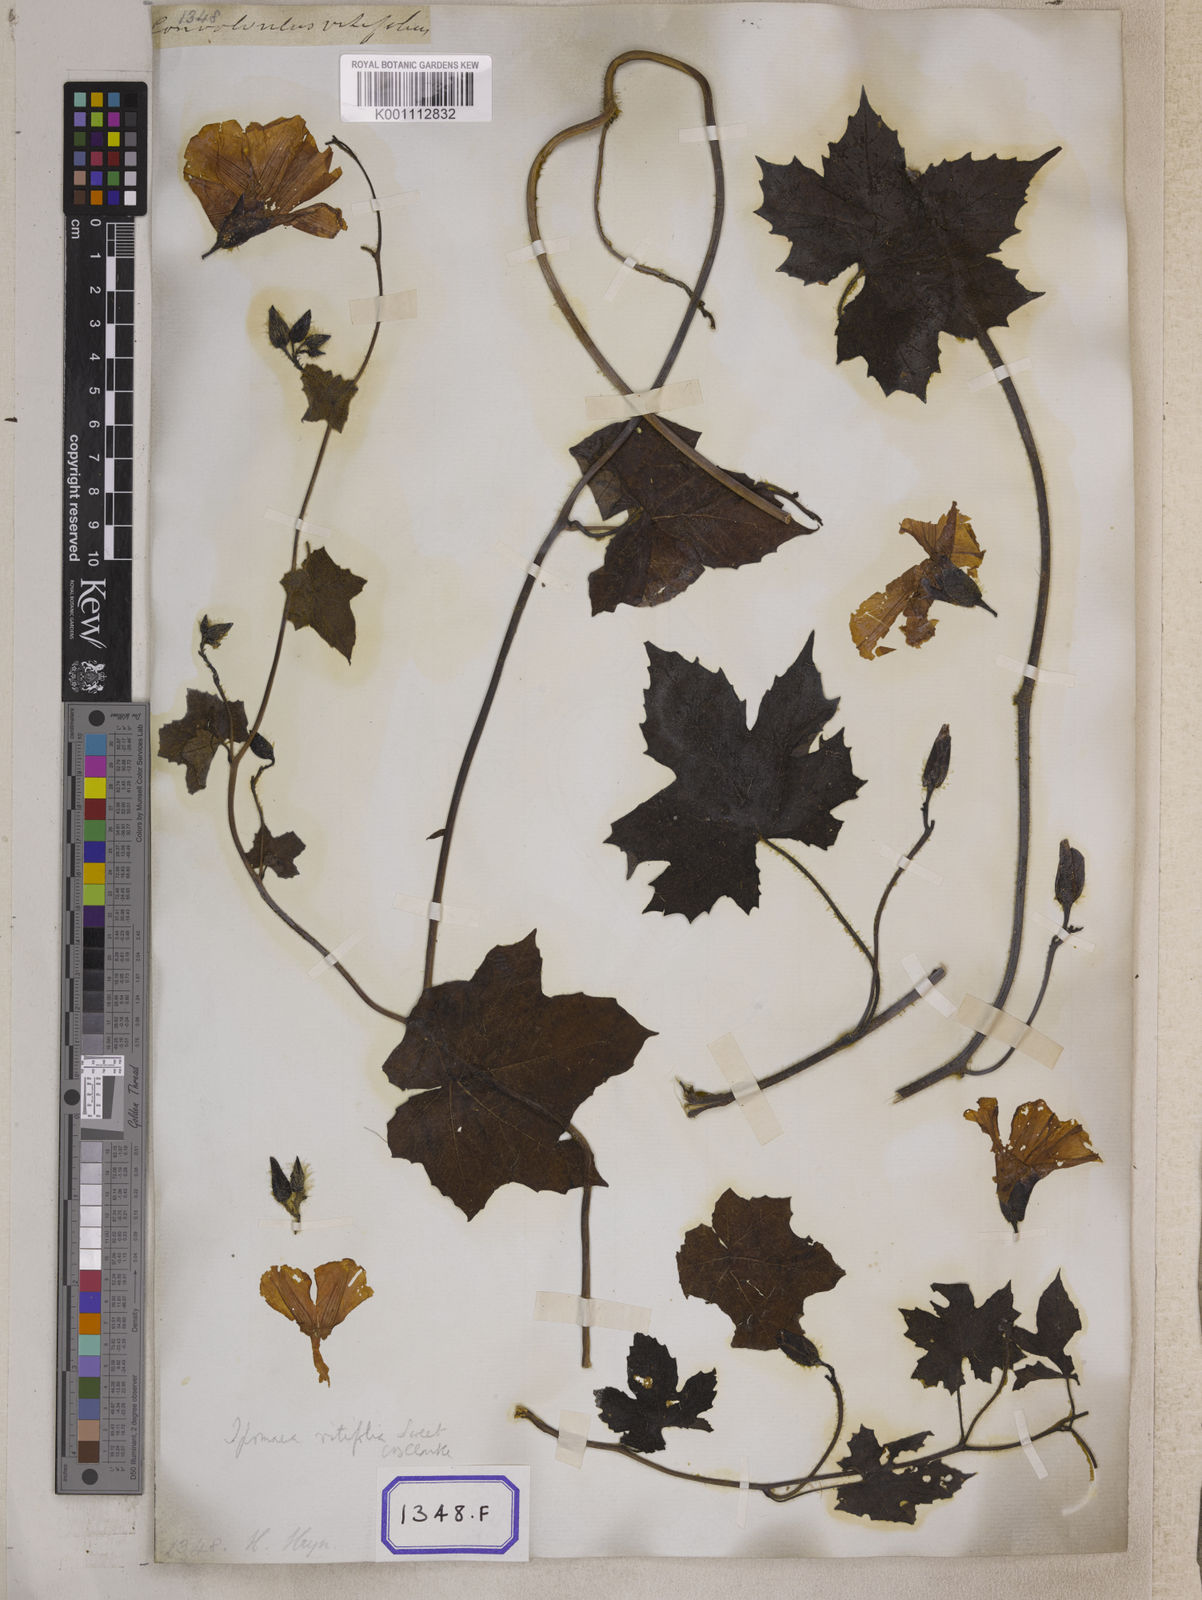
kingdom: Plantae
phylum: Tracheophyta
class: Magnoliopsida
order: Solanales
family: Convolvulaceae
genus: Convolvulus
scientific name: Convolvulus
